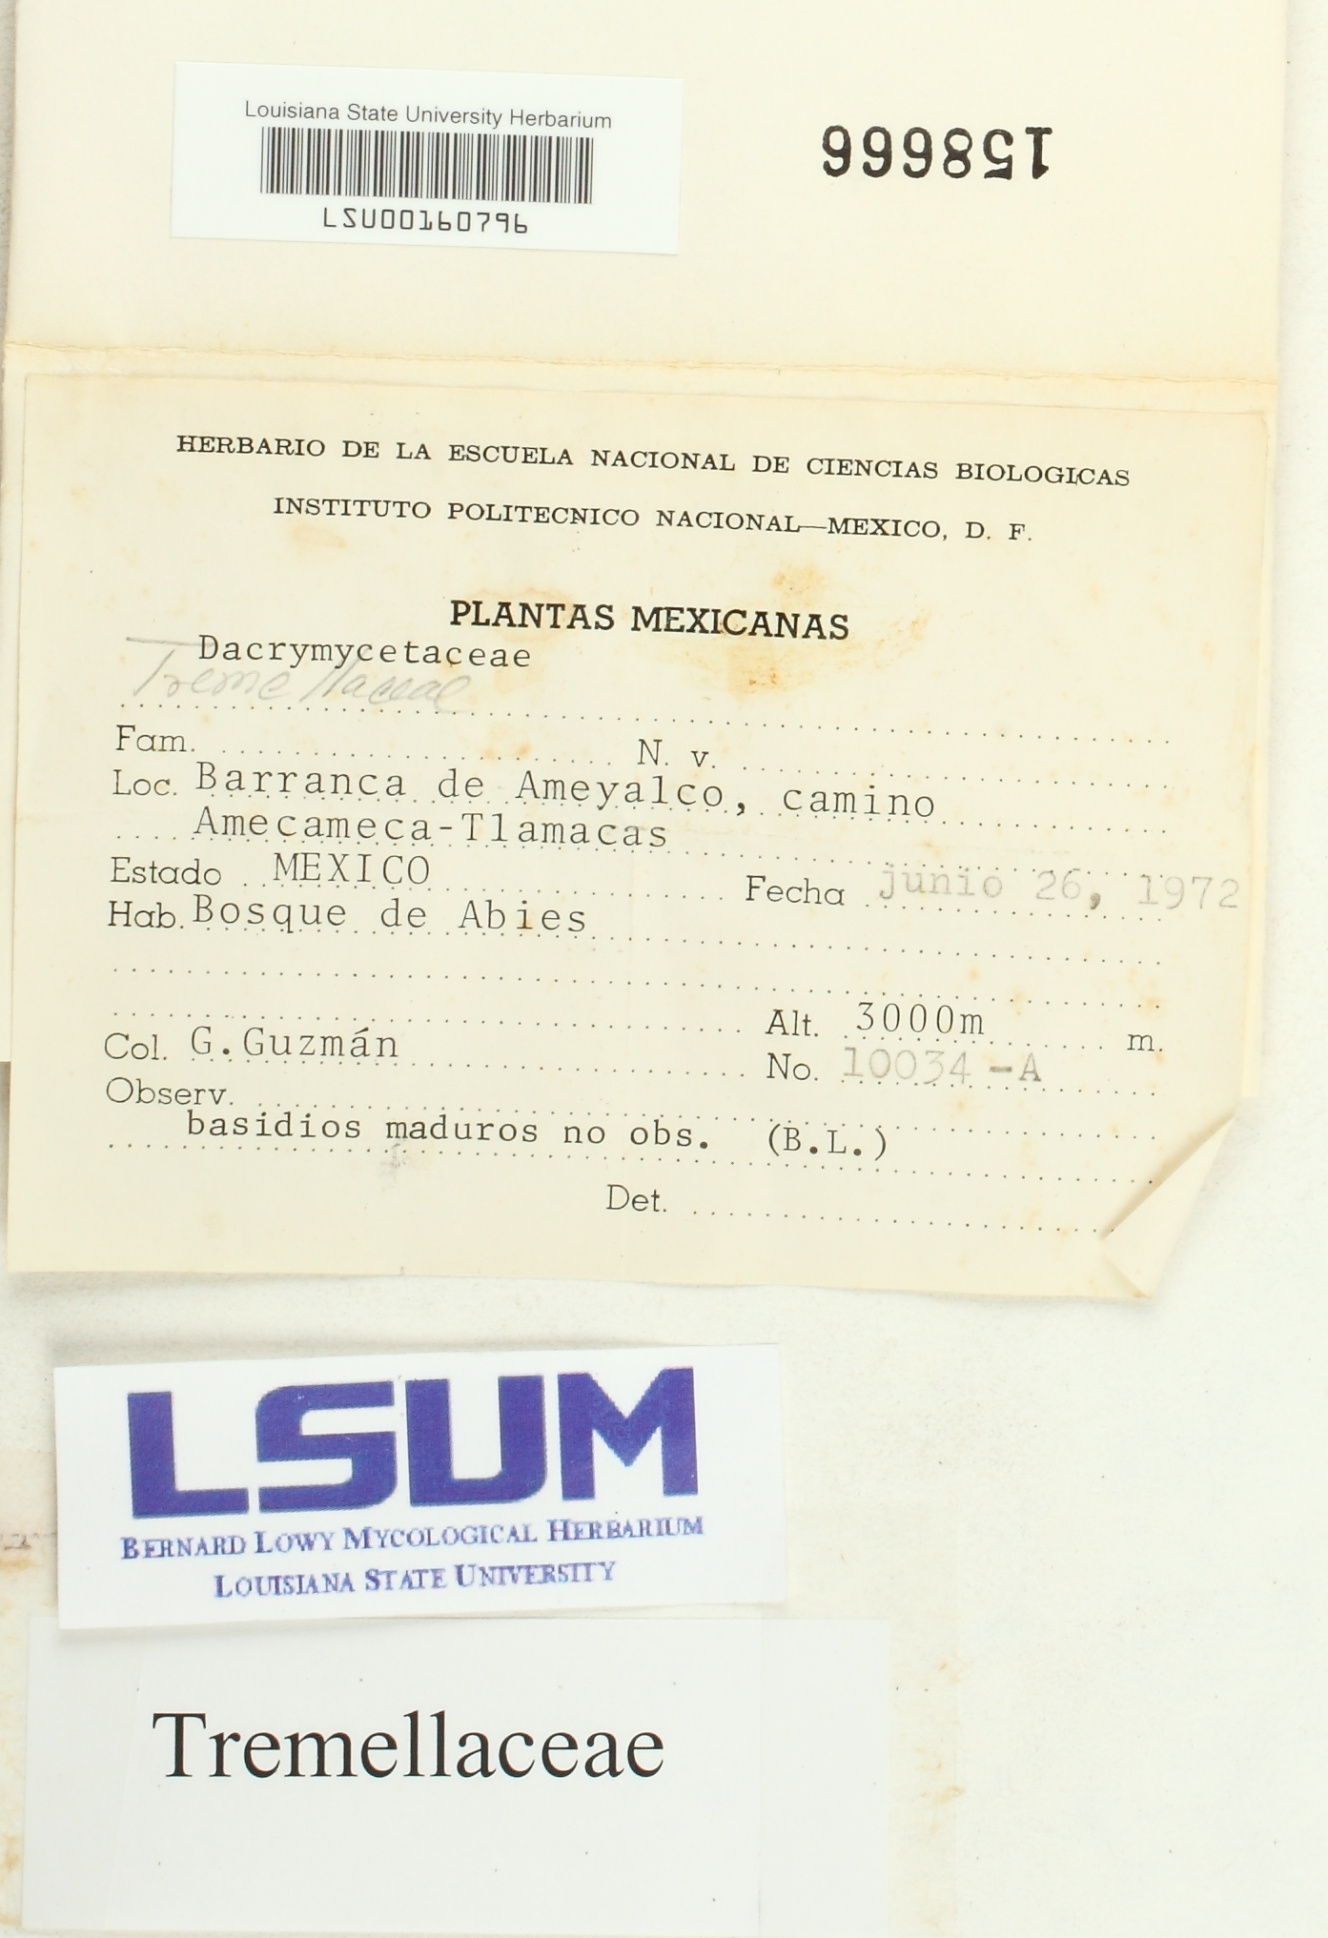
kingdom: Fungi
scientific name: Fungi
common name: Fungi
